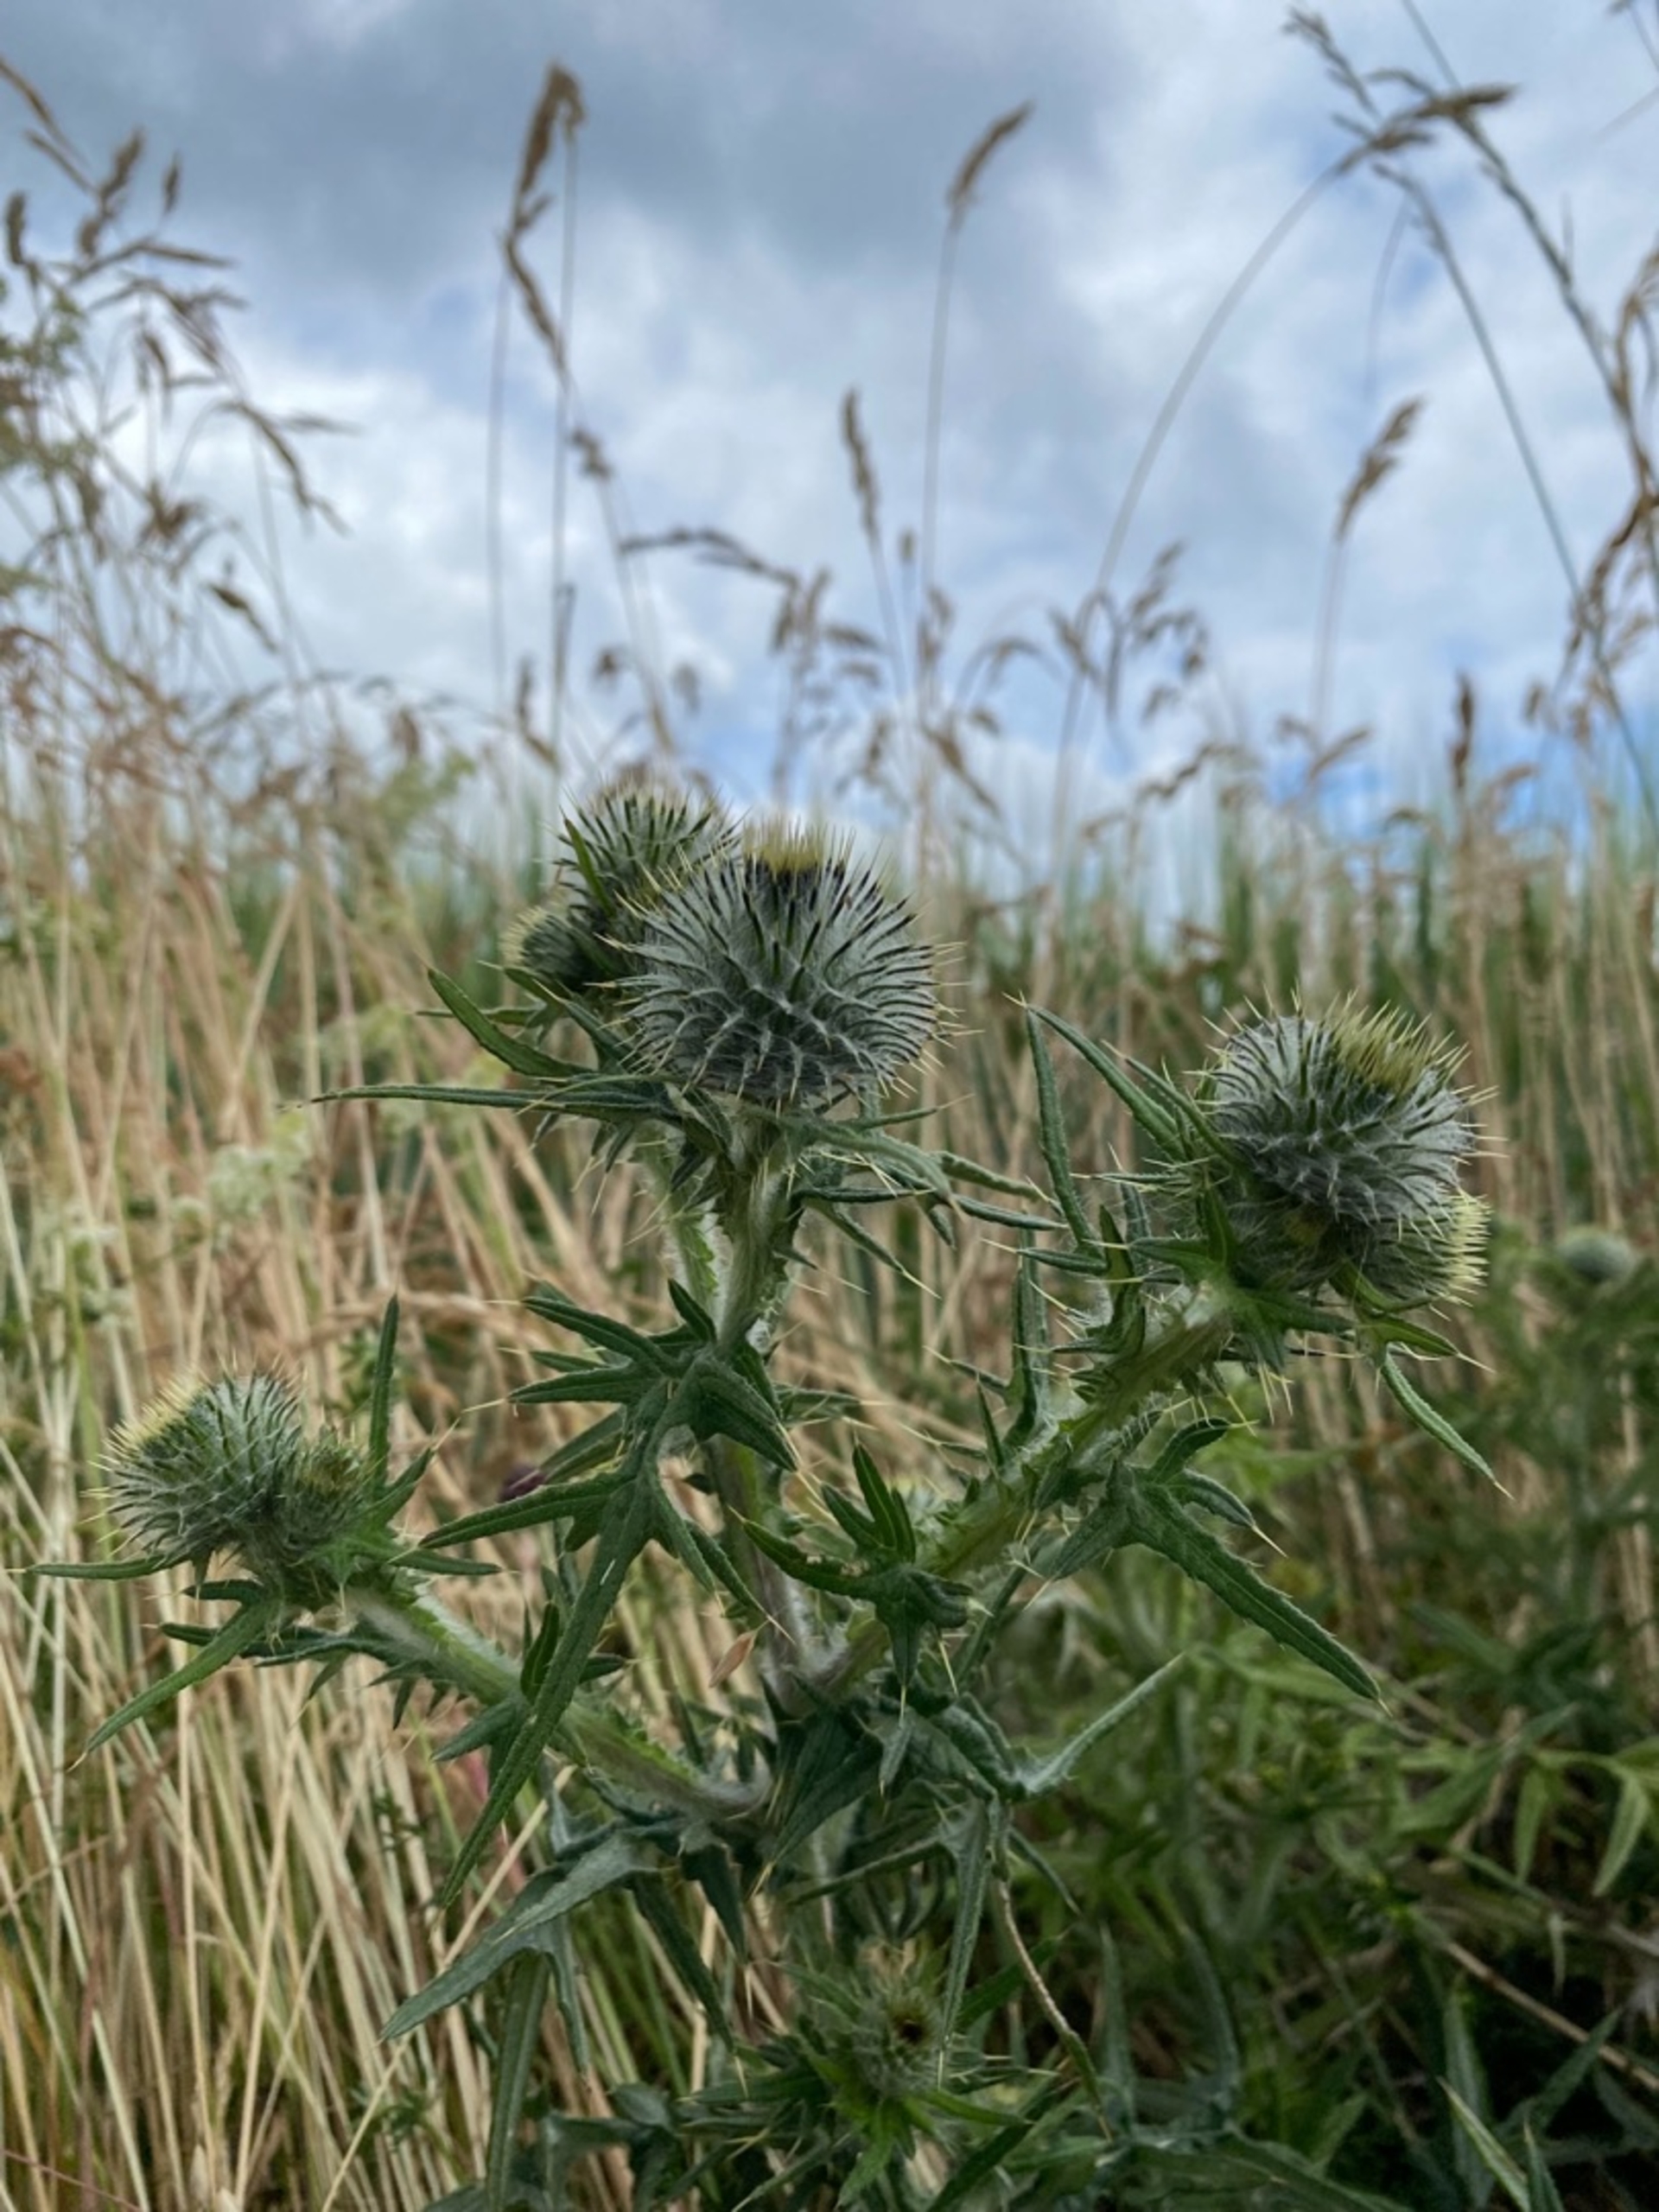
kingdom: Plantae
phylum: Tracheophyta
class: Magnoliopsida
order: Asterales
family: Asteraceae
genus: Cirsium
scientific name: Cirsium vulgare
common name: Horse-tidsel
